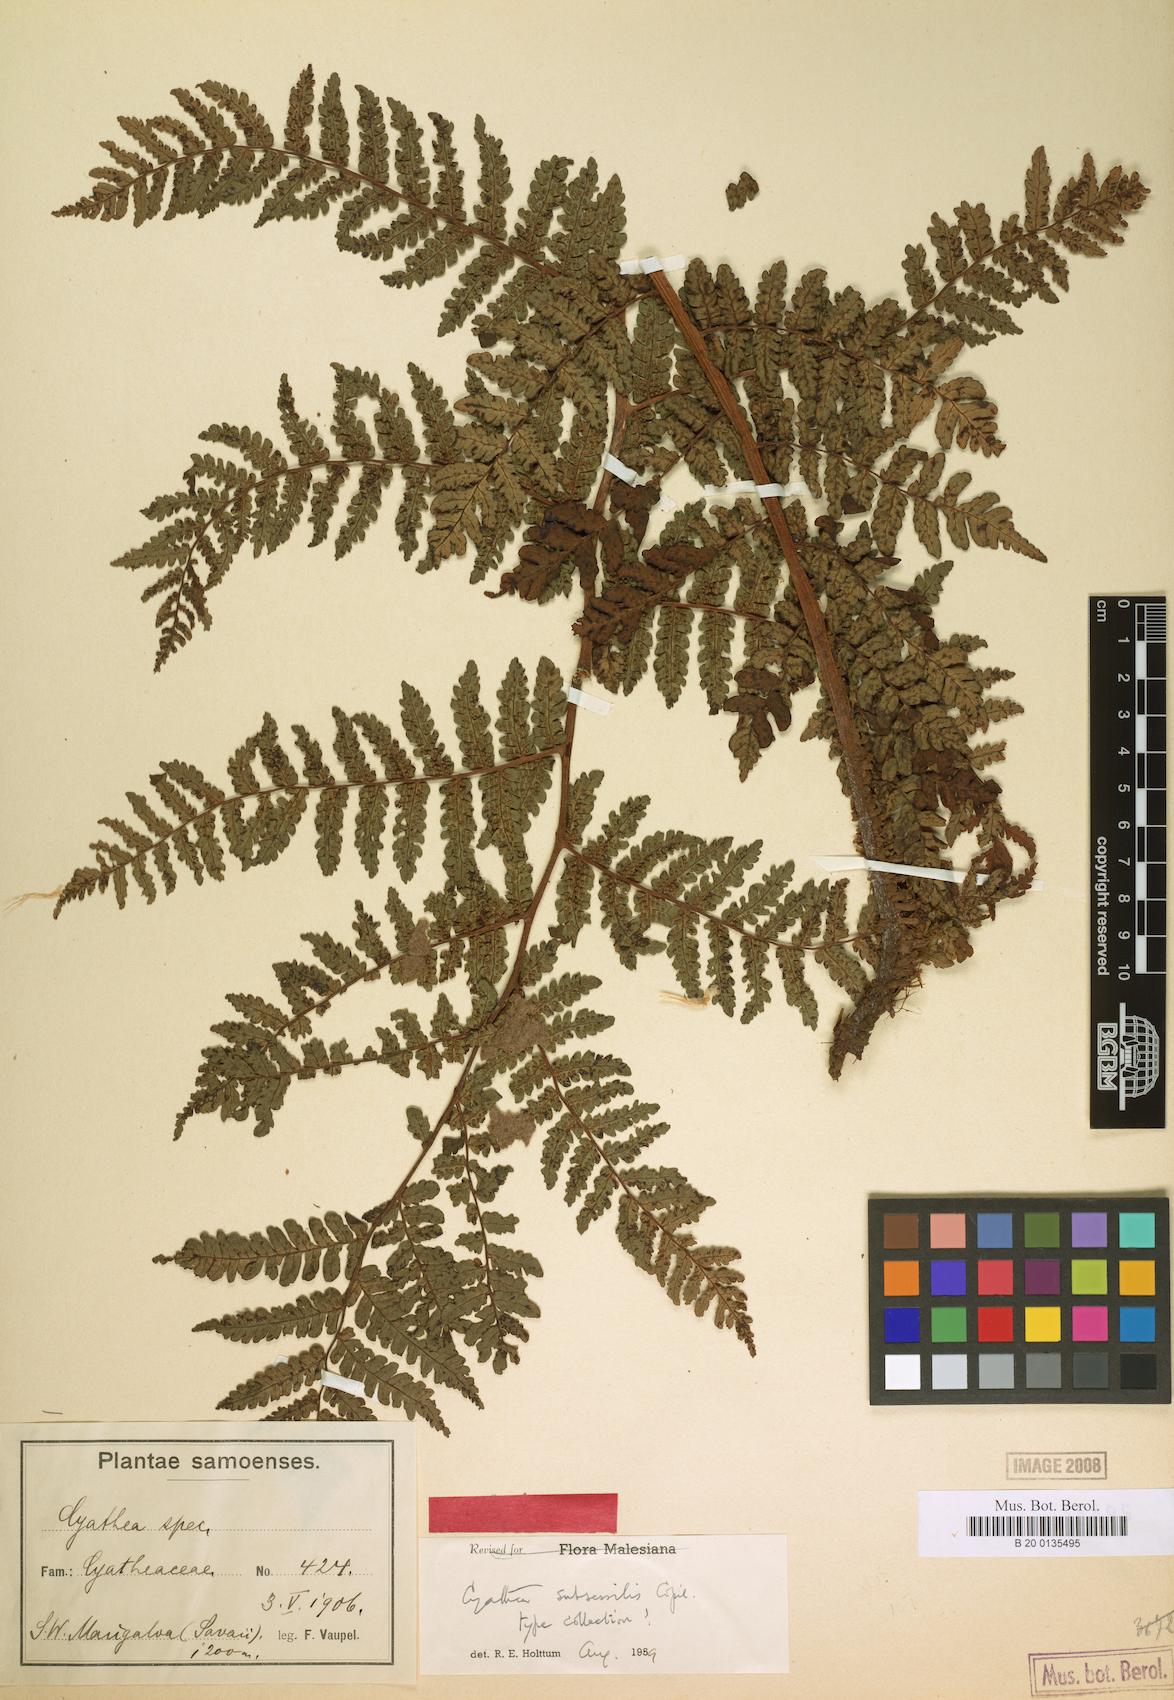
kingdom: Plantae
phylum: Tracheophyta
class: Polypodiopsida
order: Cyatheales
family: Cyatheaceae
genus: Sphaeropteris
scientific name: Sphaeropteris subsessilis
